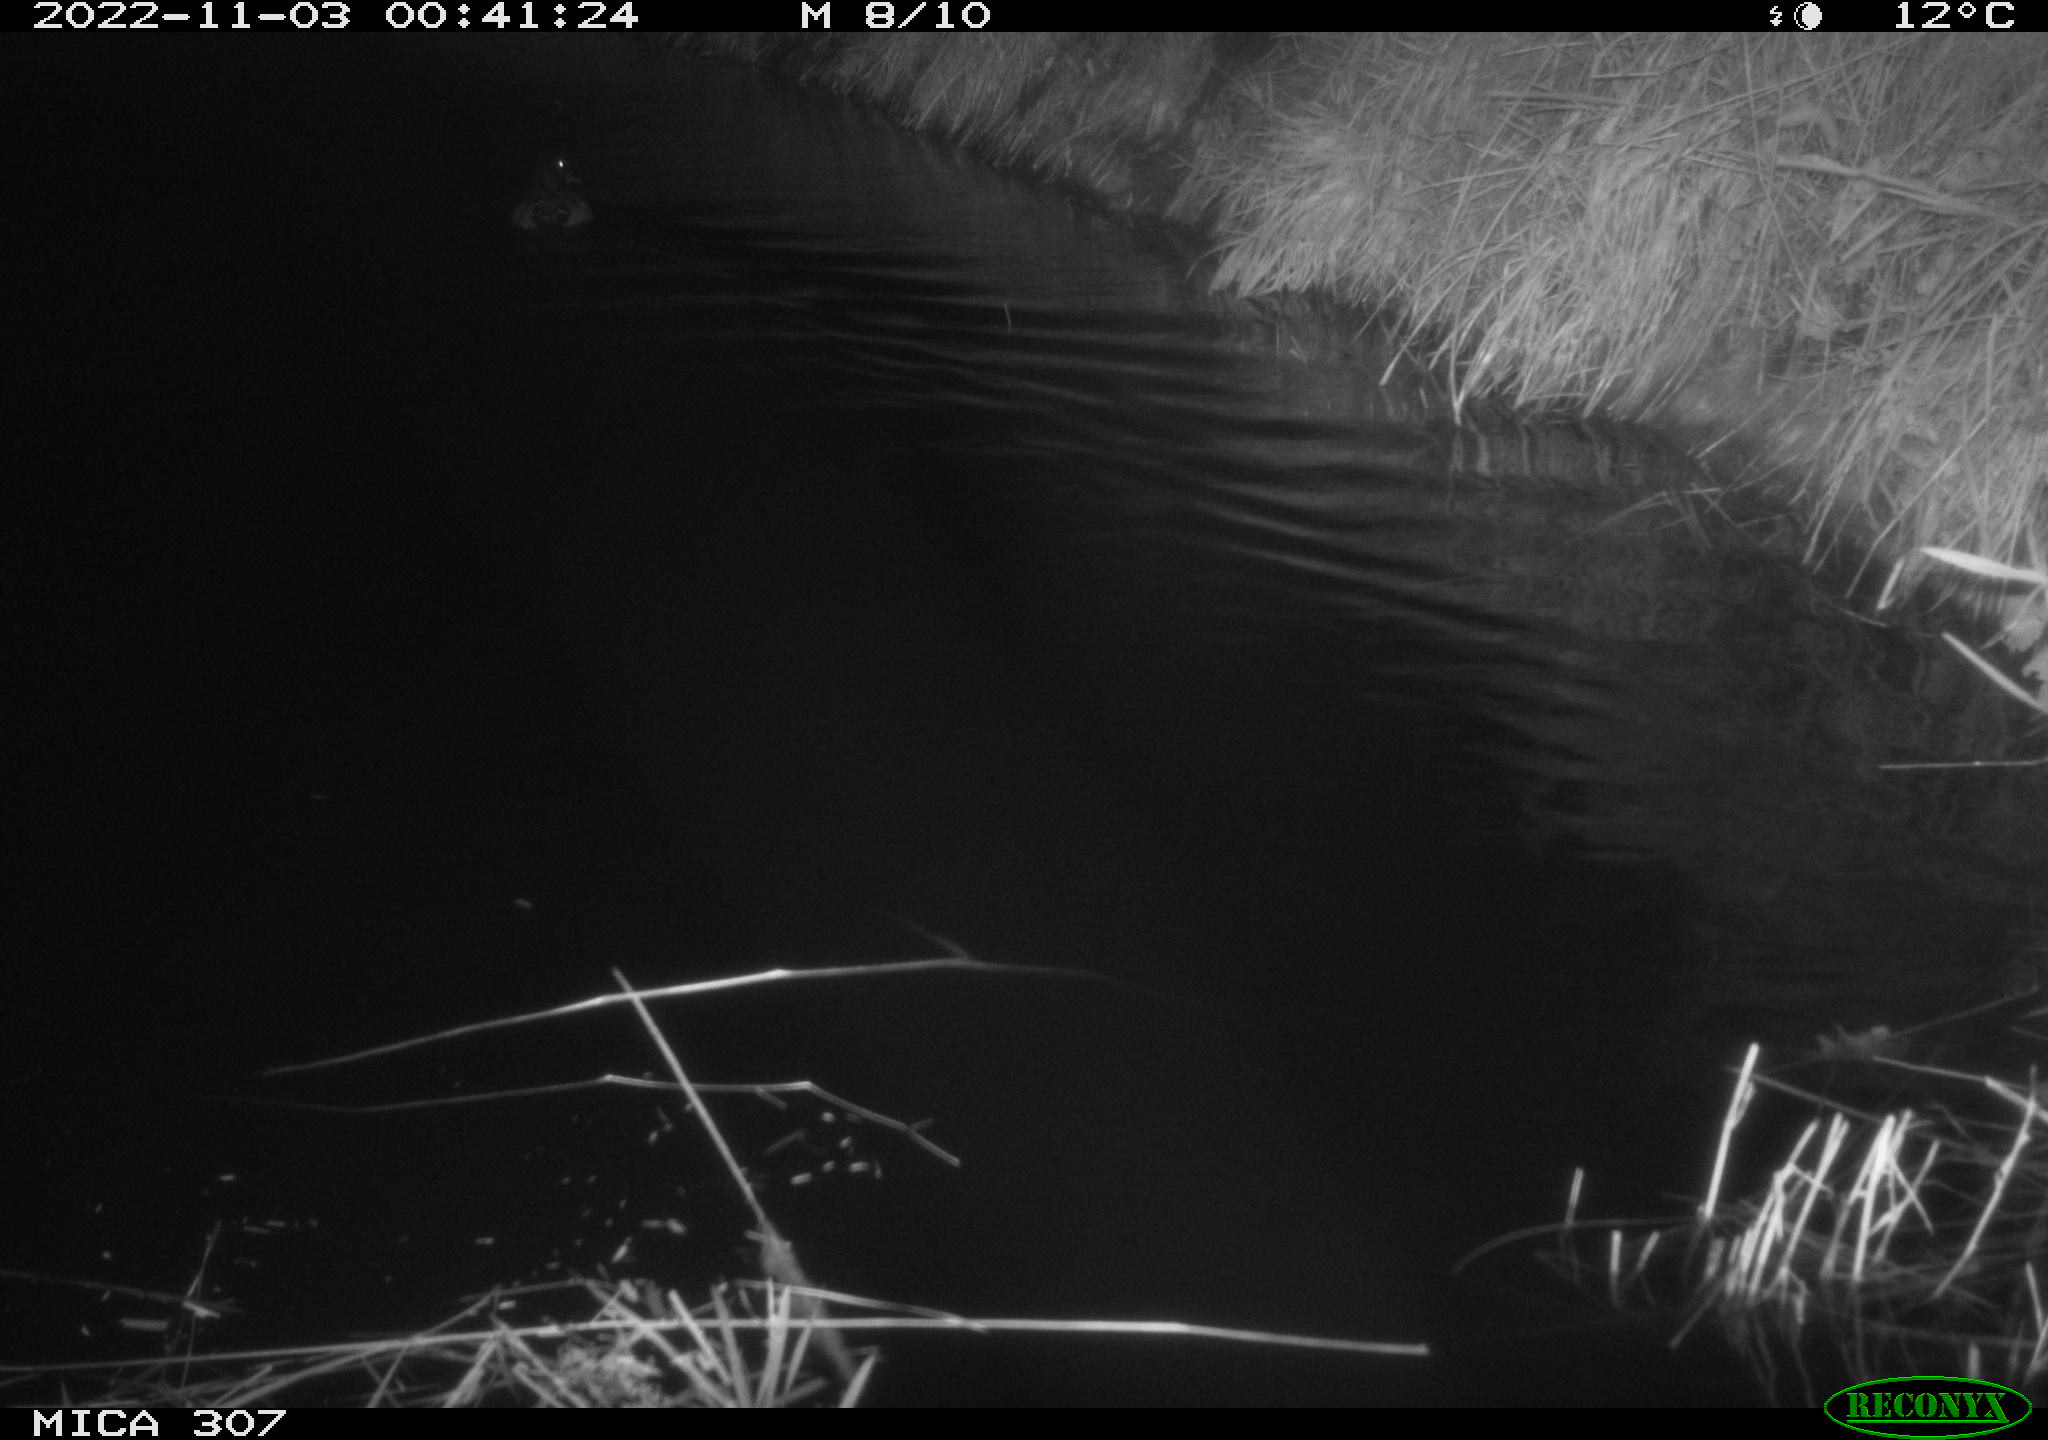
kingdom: Animalia
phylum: Chordata
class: Aves
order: Anseriformes
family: Anatidae
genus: Anas
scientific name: Anas
